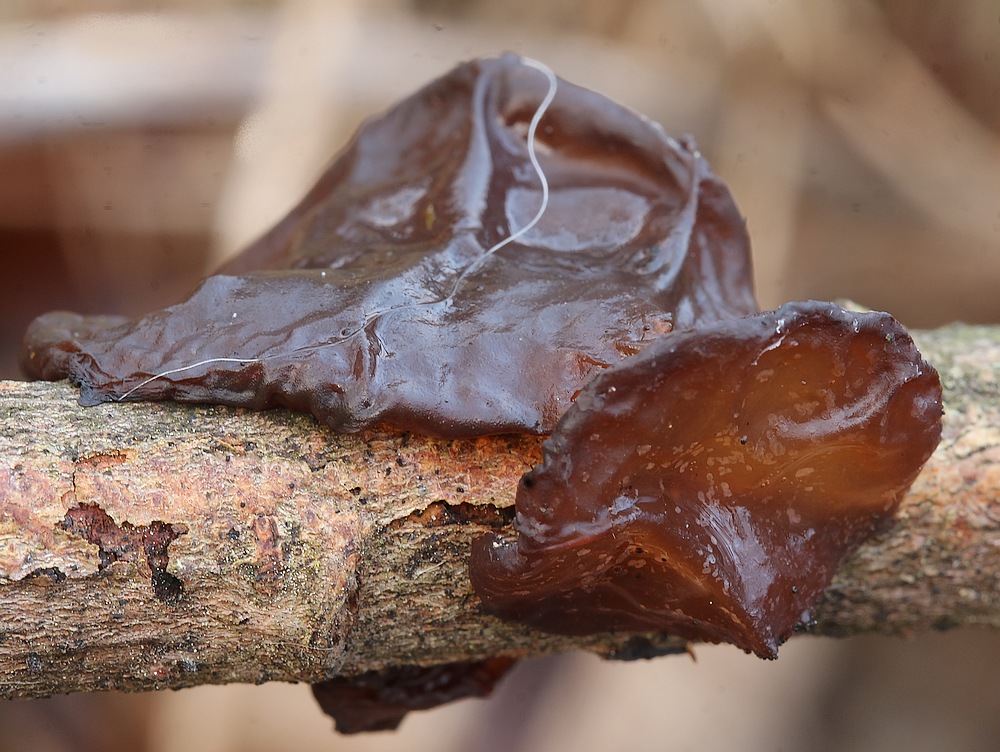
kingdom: Fungi
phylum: Basidiomycota
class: Agaricomycetes
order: Auriculariales
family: Auriculariaceae
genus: Exidia
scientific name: Exidia recisa
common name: pile-bævretop
